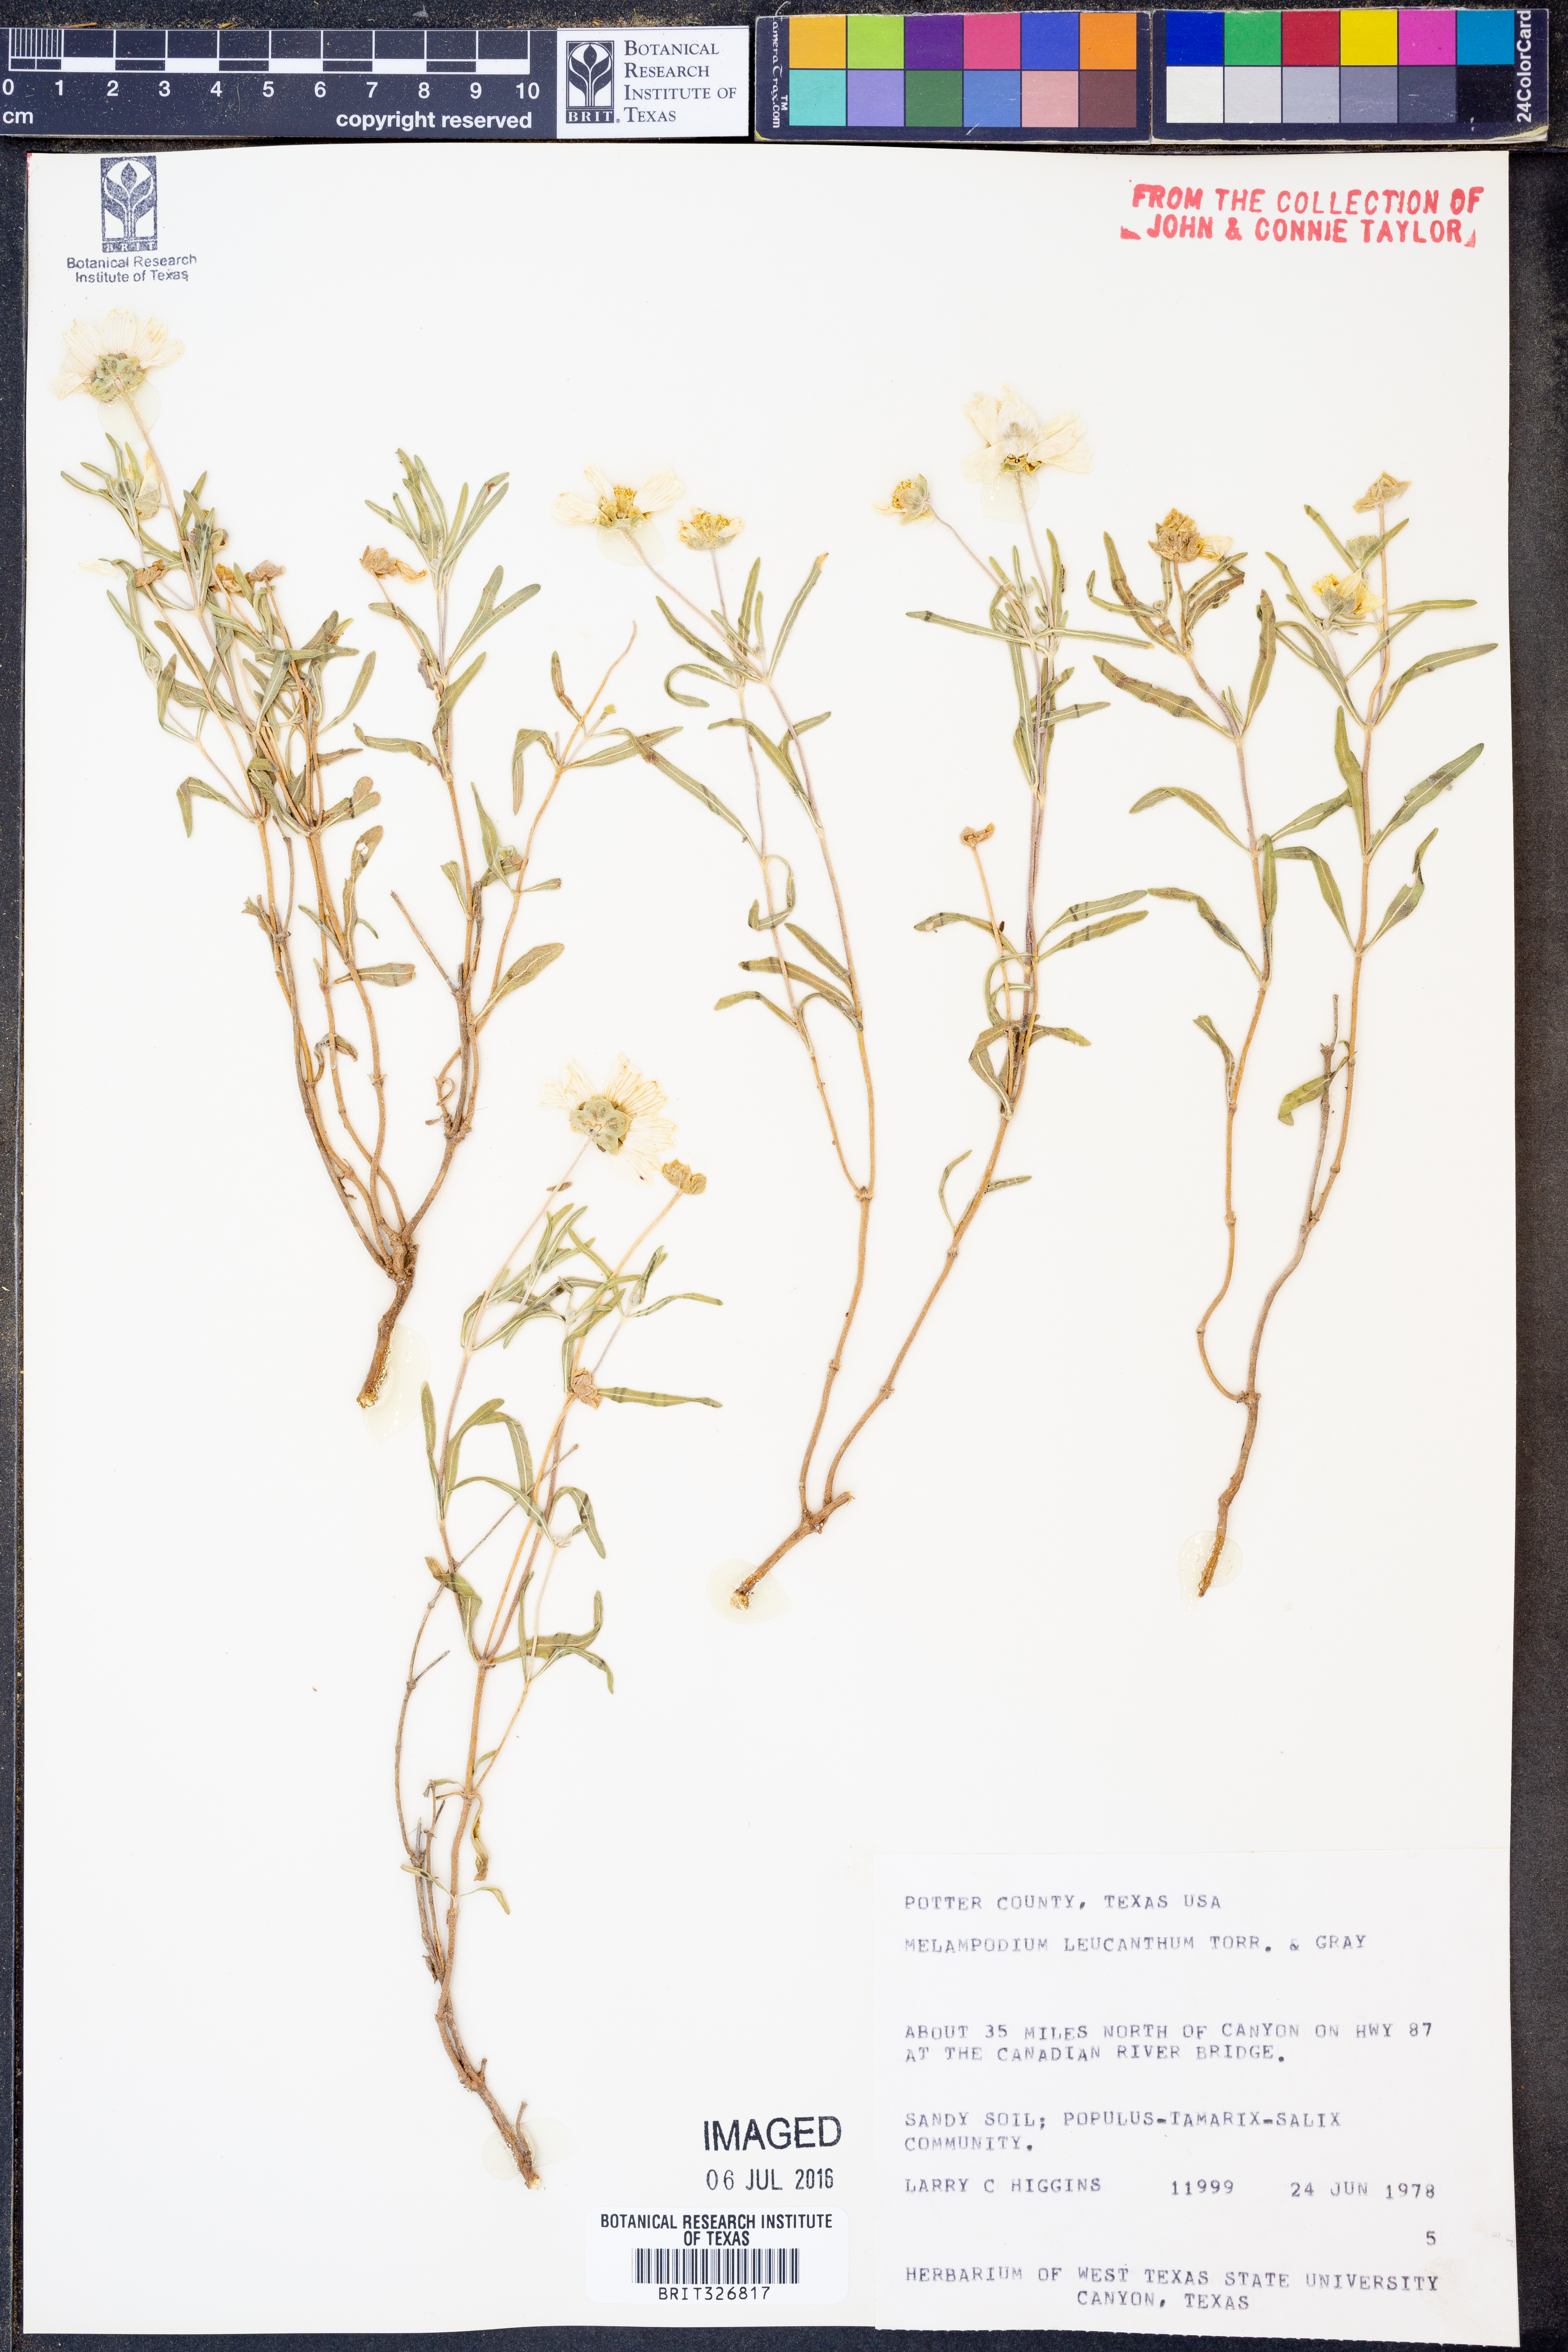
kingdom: Plantae
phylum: Tracheophyta
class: Magnoliopsida
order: Asterales
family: Asteraceae
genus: Melampodium
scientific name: Melampodium leucanthum
